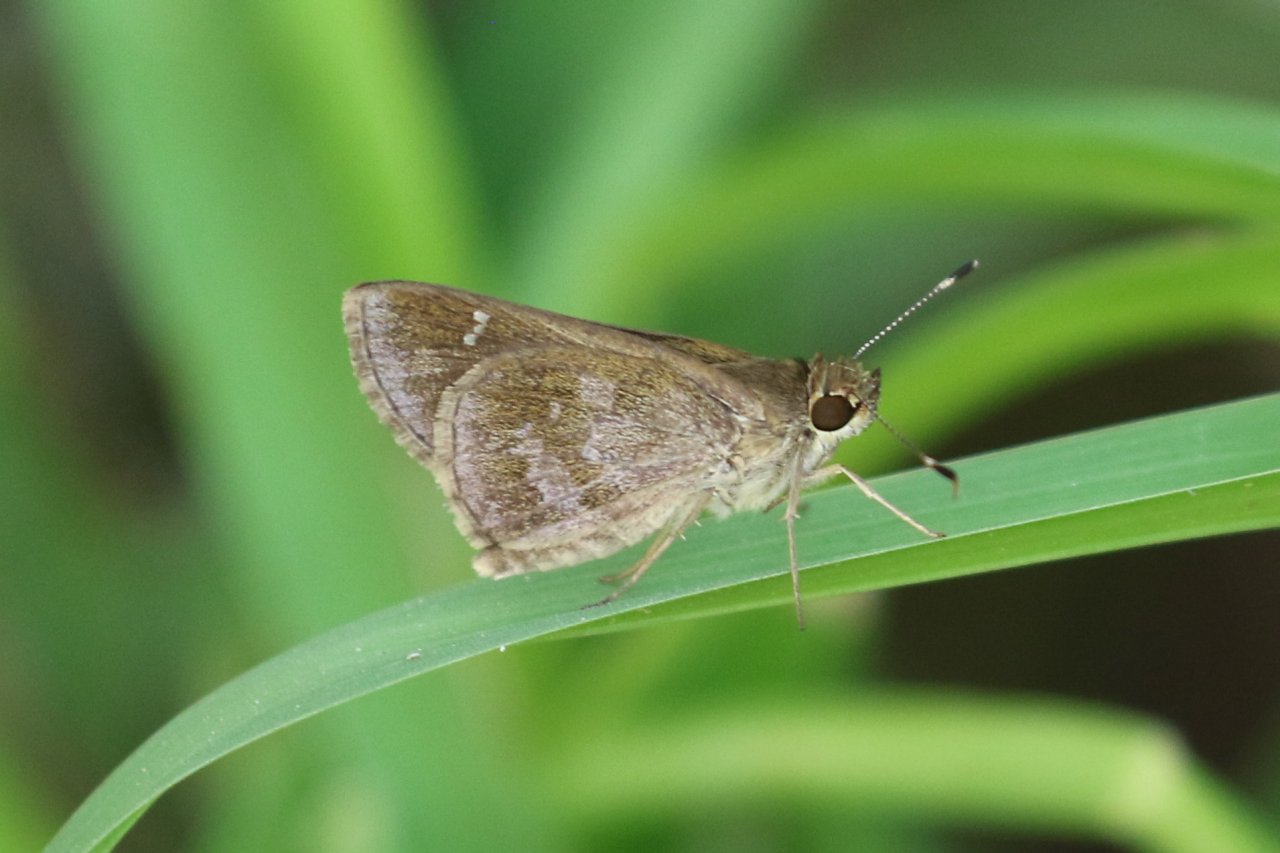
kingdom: Animalia
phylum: Arthropoda
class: Insecta
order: Lepidoptera
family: Hesperiidae
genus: Cymaenes
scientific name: Cymaenes odilia
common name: Fawn-spotted Skipper
